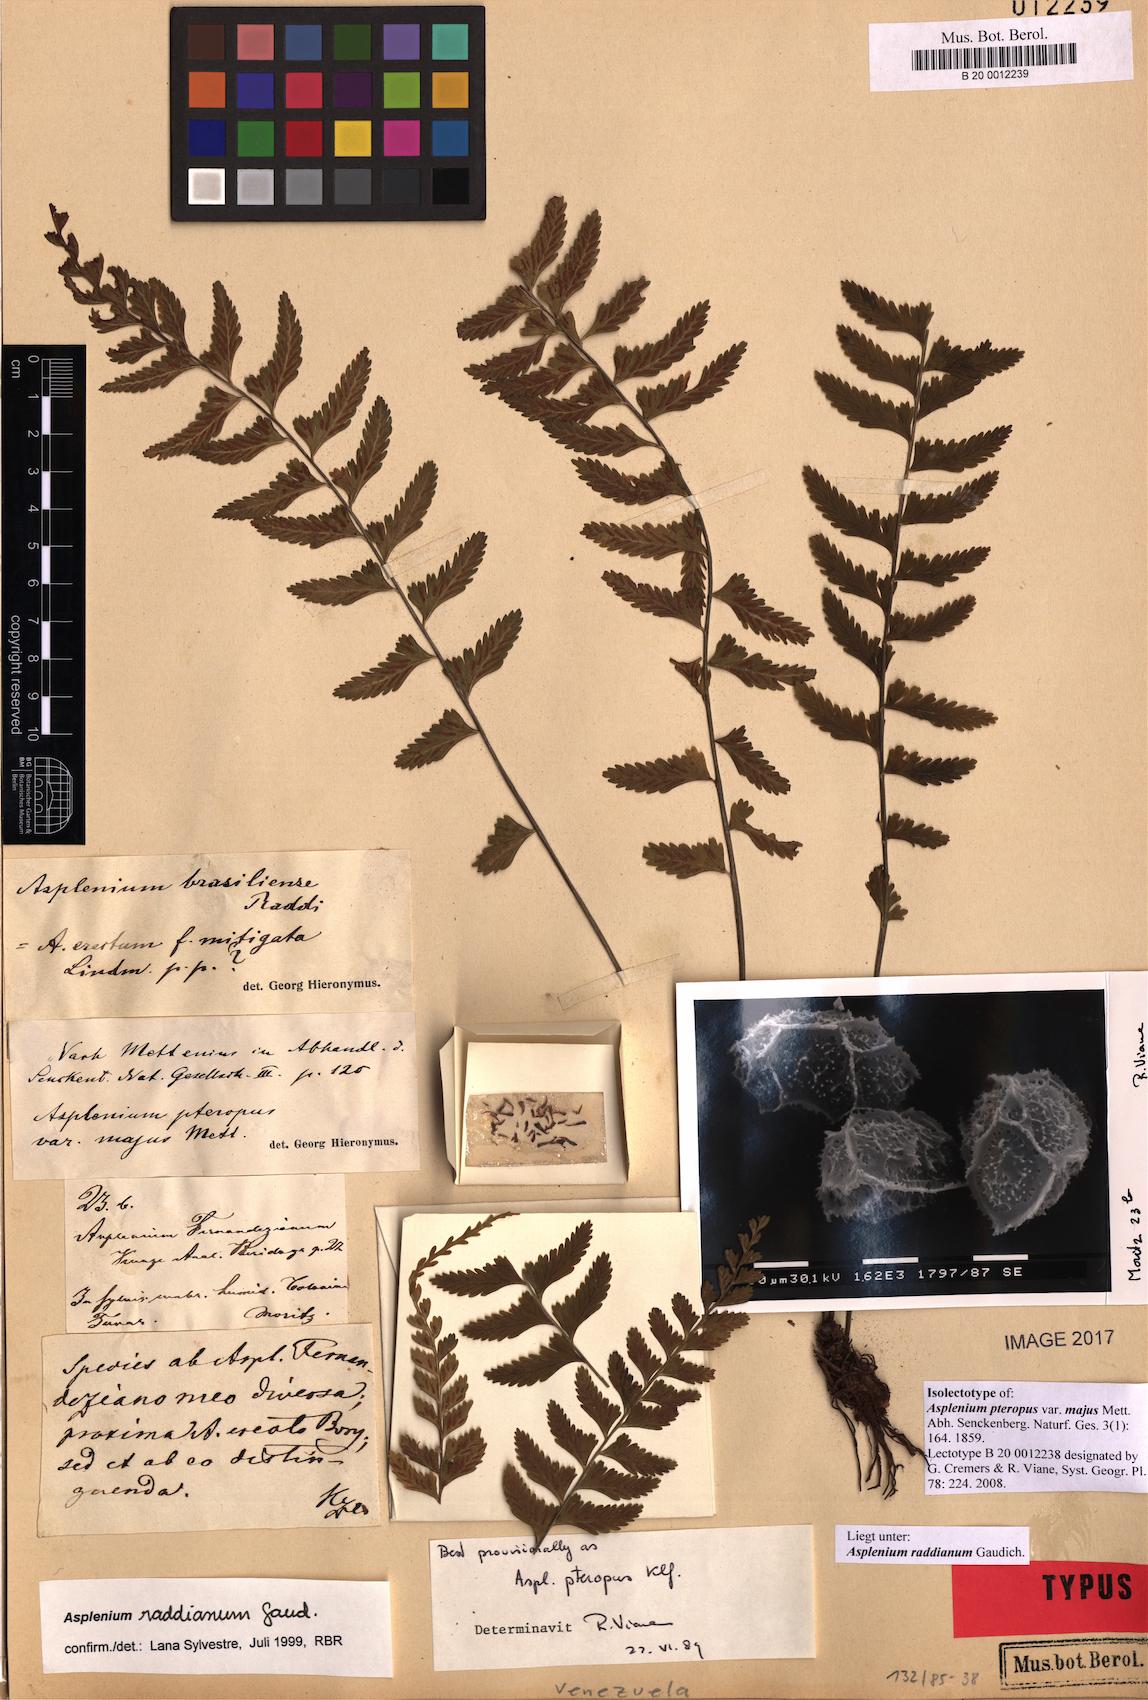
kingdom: Plantae
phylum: Tracheophyta
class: Polypodiopsida
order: Polypodiales
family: Aspleniaceae
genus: Asplenium
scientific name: Asplenium raddianum
